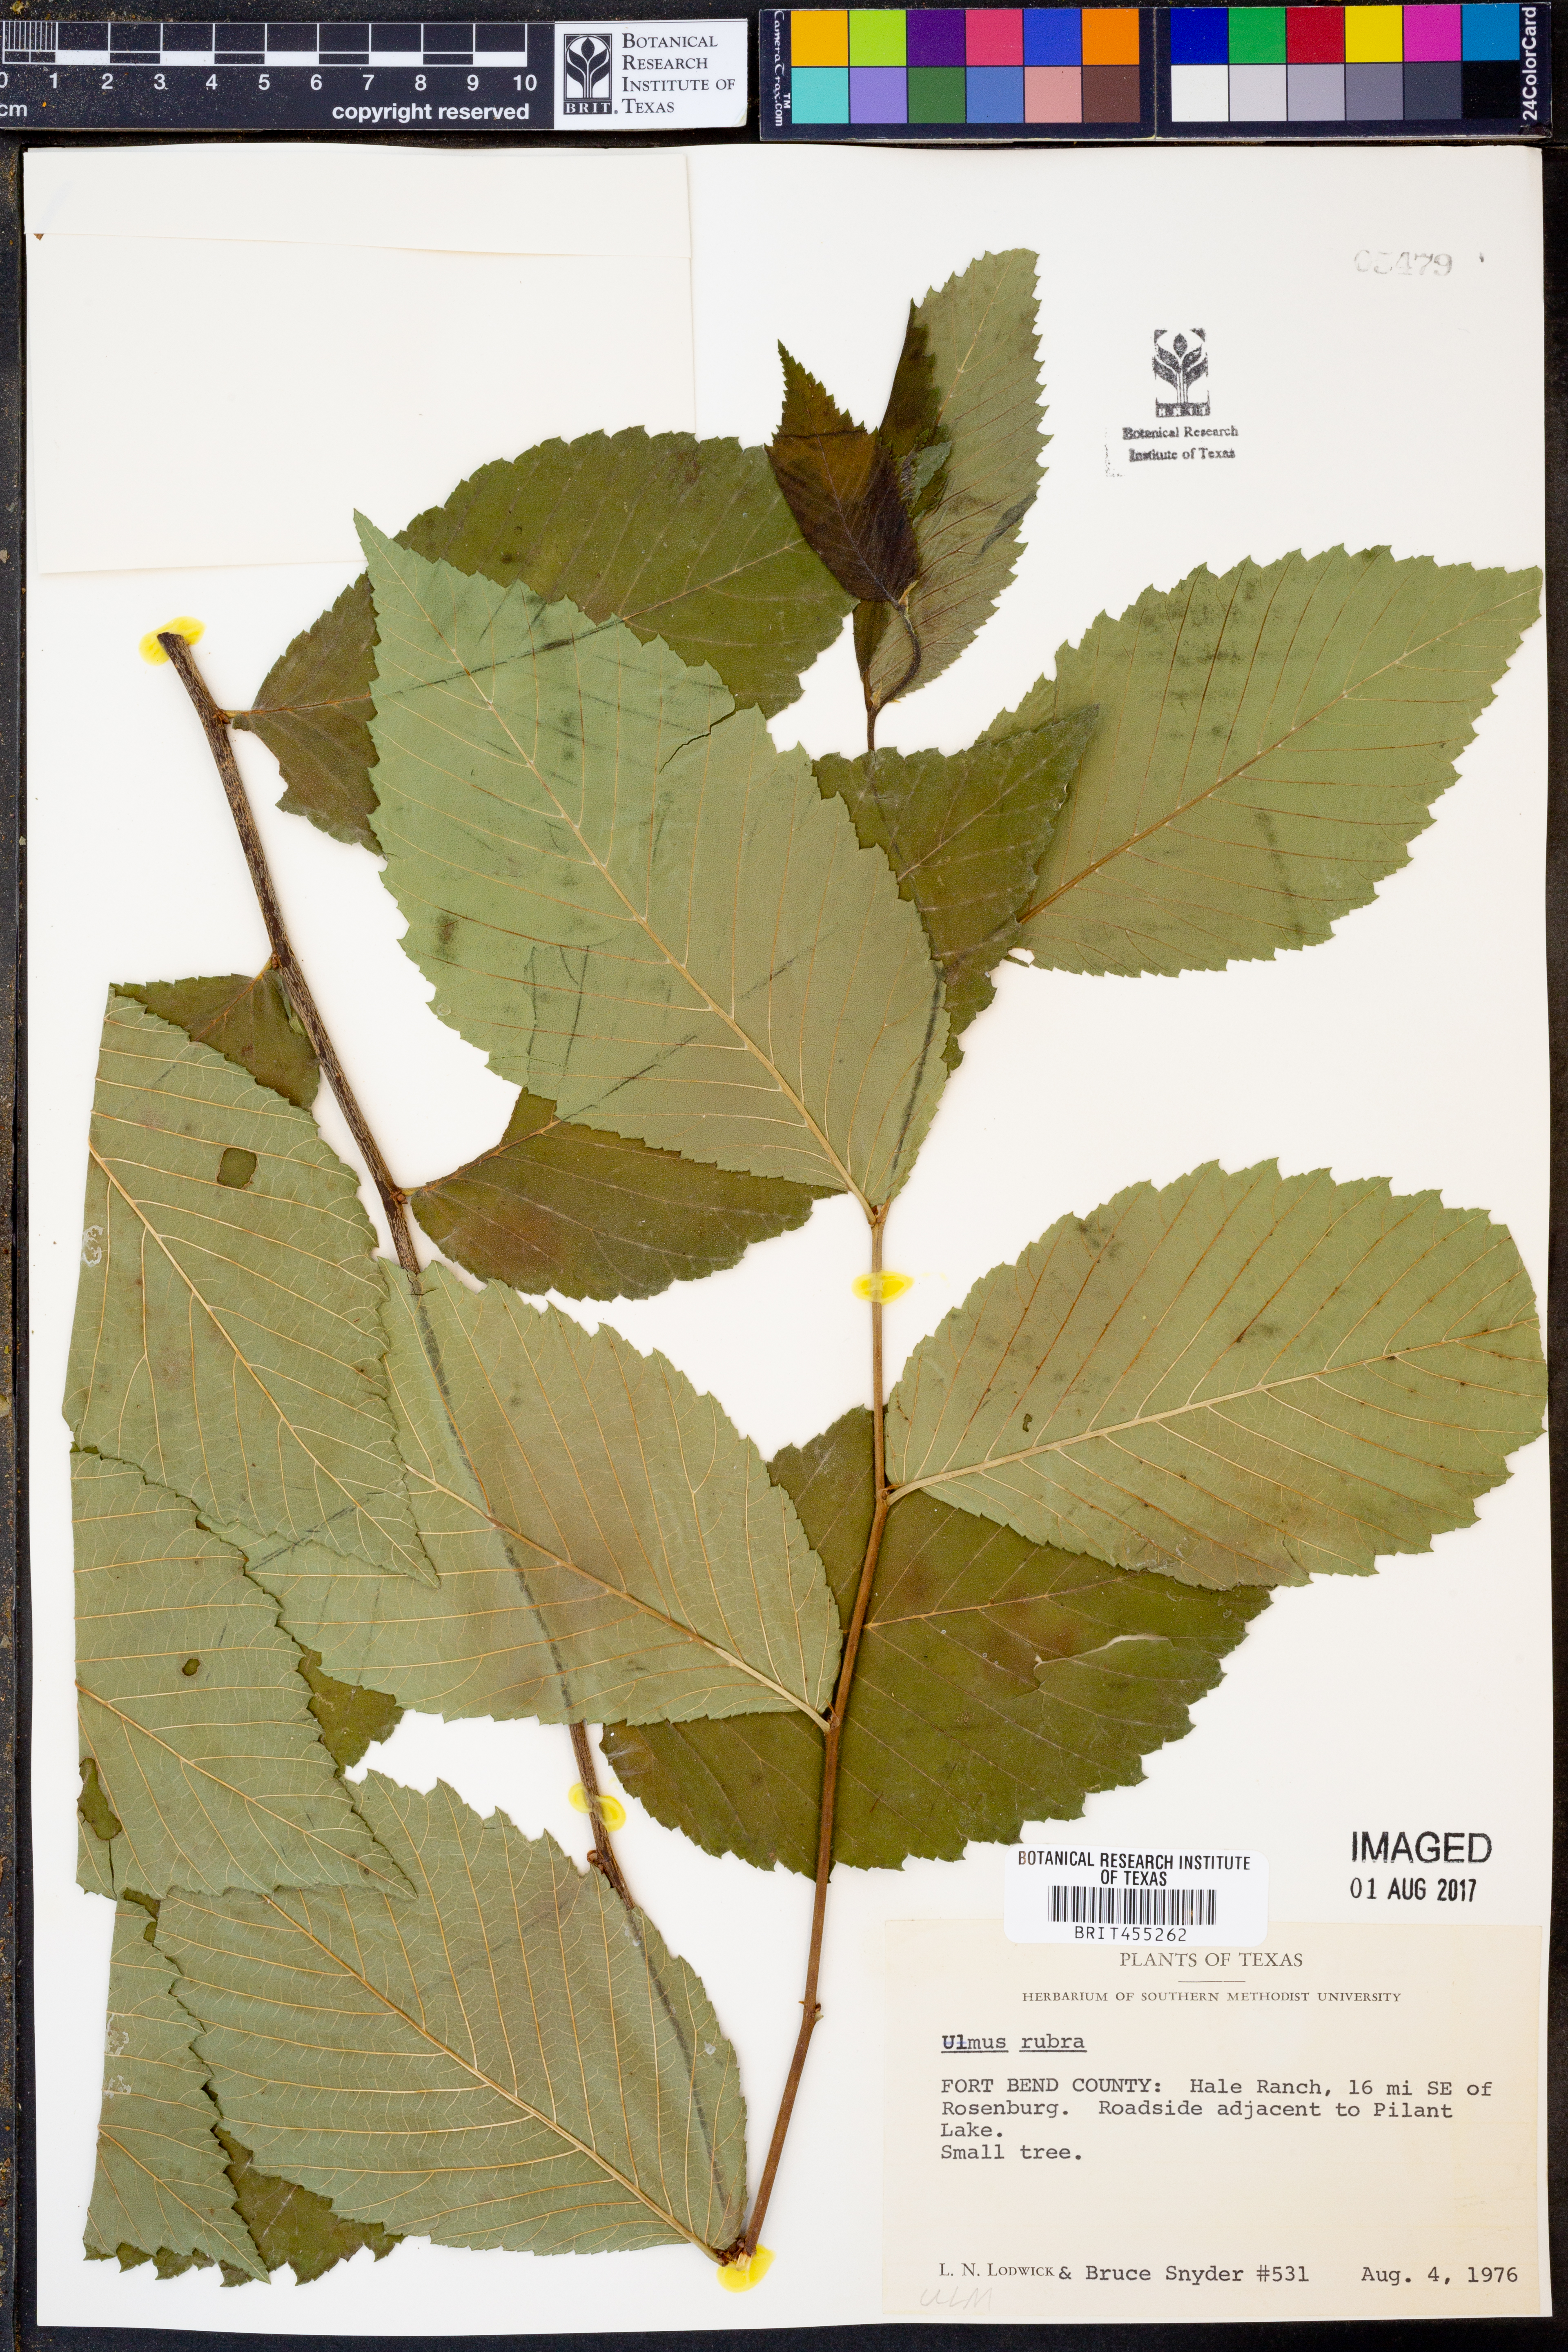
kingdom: Plantae
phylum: Tracheophyta
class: Magnoliopsida
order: Rosales
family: Ulmaceae
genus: Ulmus
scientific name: Ulmus rubra
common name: Slippery elm
